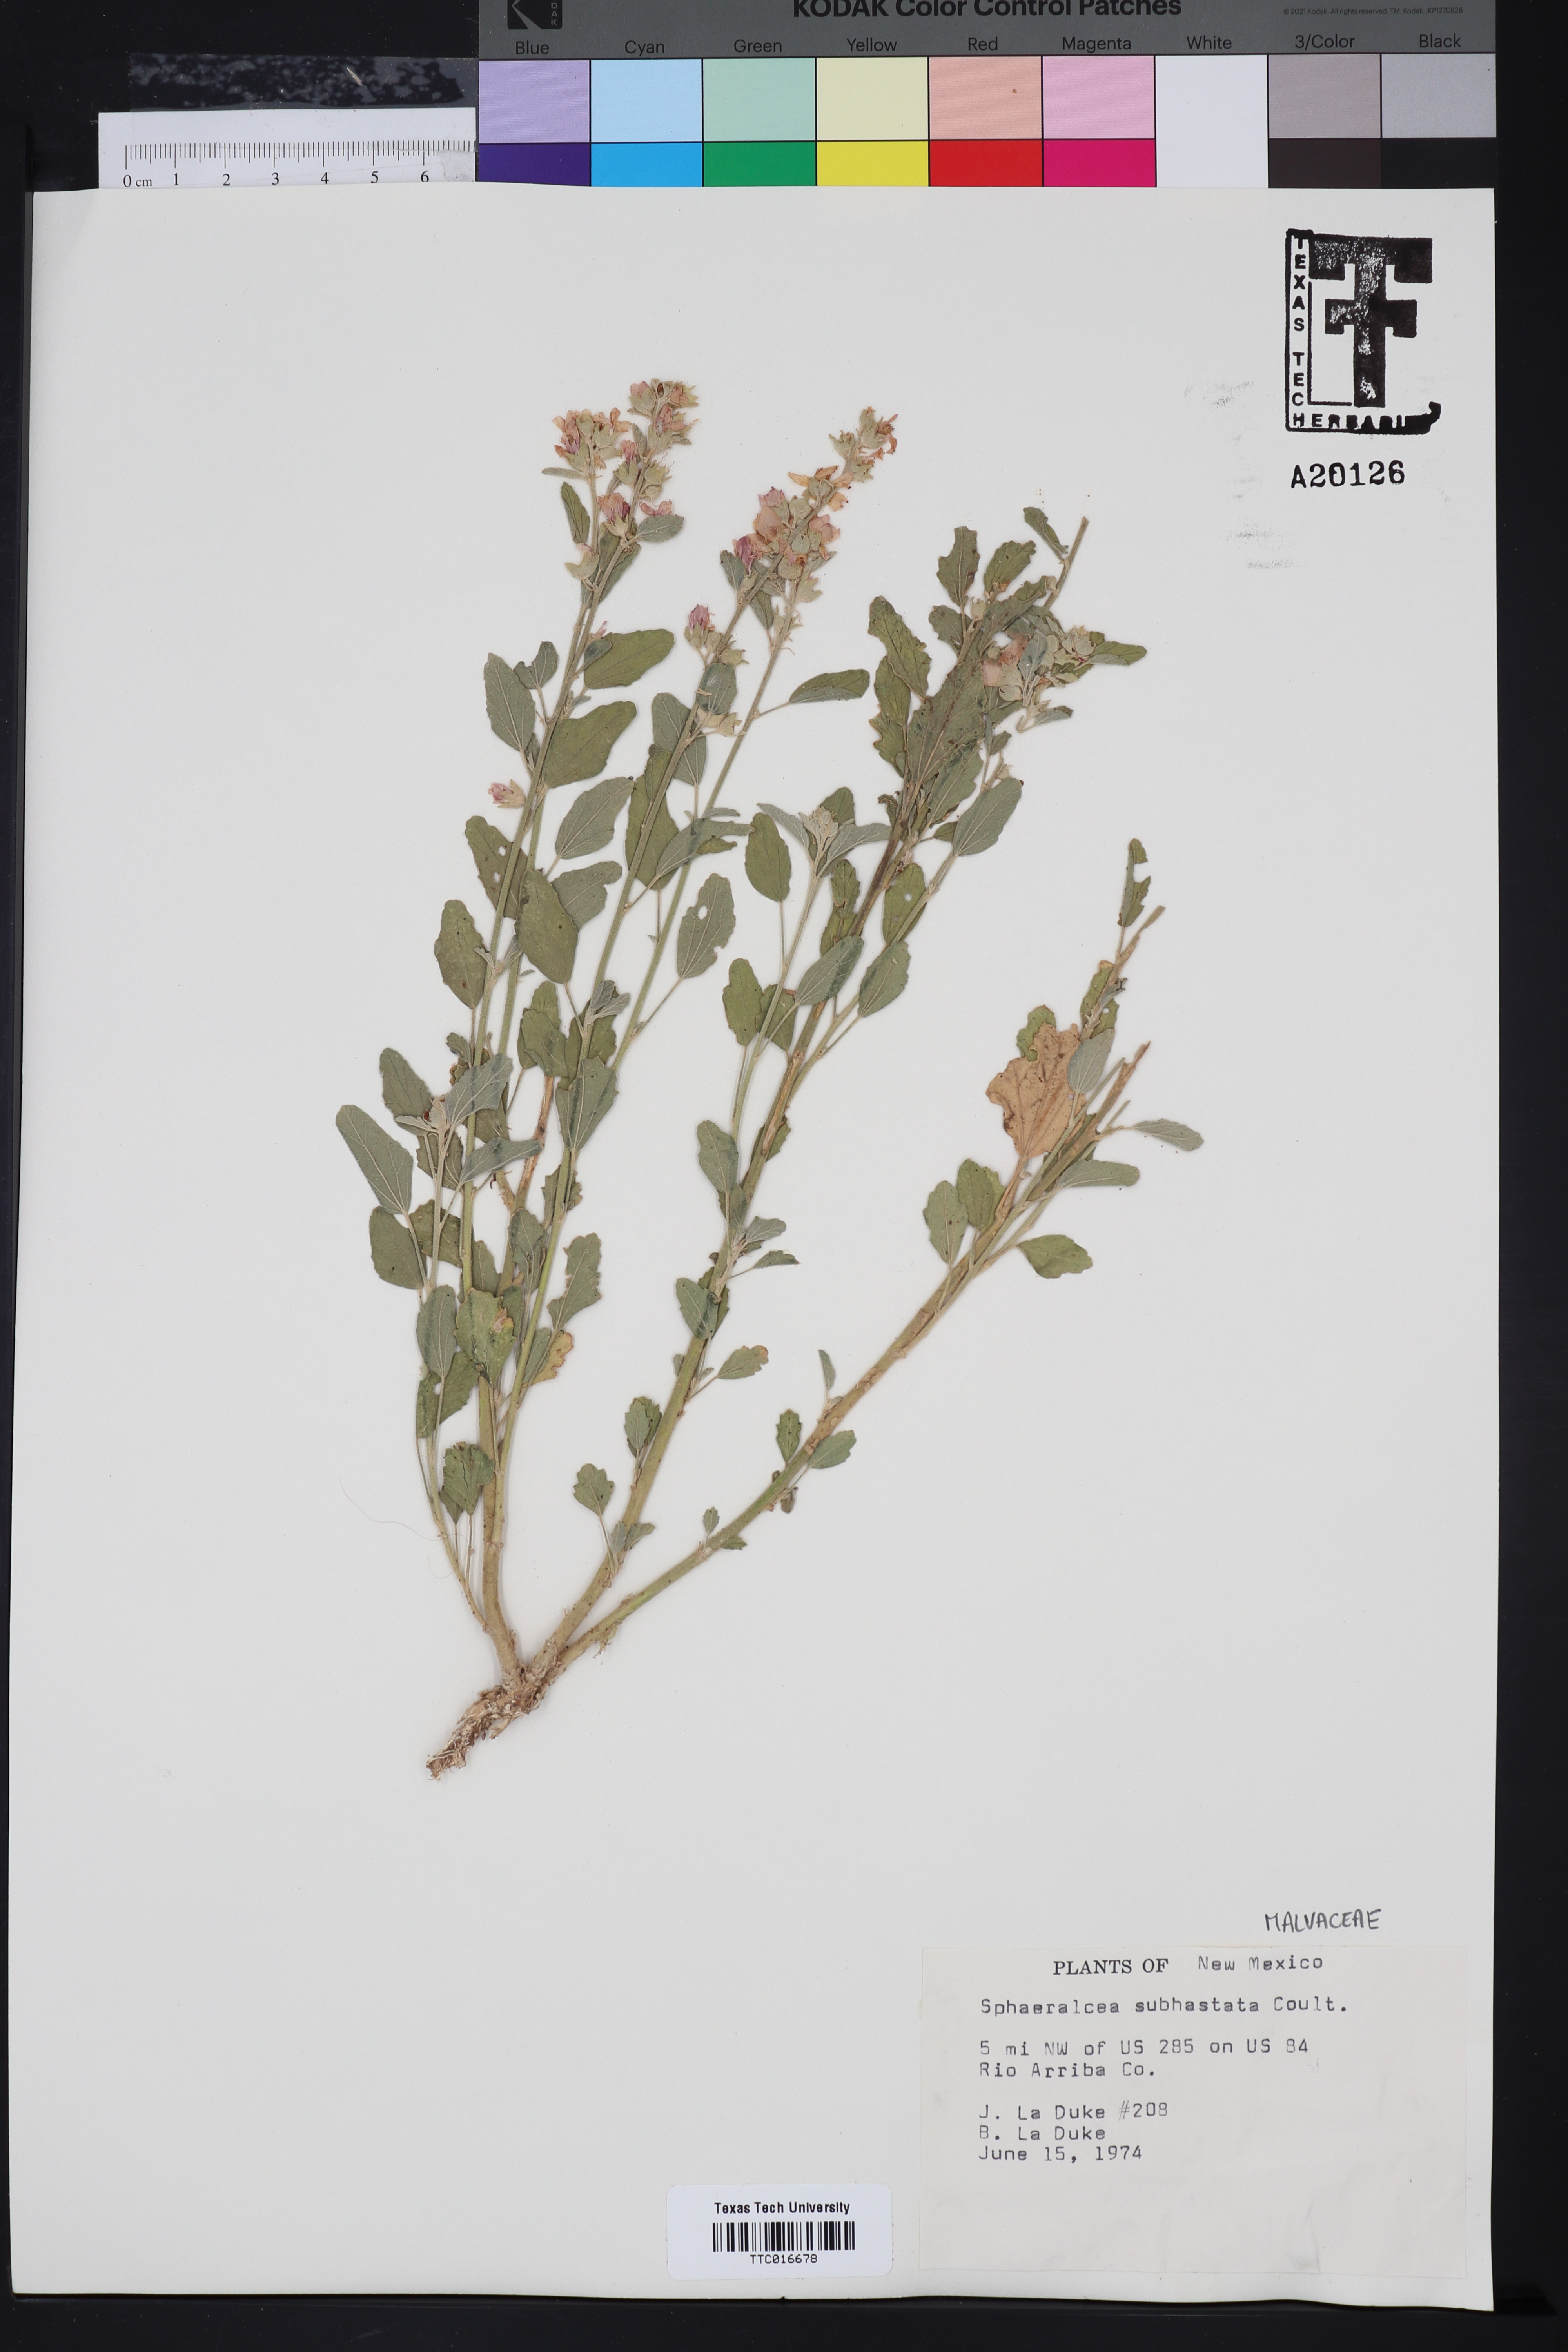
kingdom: Plantae
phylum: Tracheophyta
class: Magnoliopsida
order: Malvales
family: Malvaceae
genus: Sphaeralcea
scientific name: Sphaeralcea hastulata
